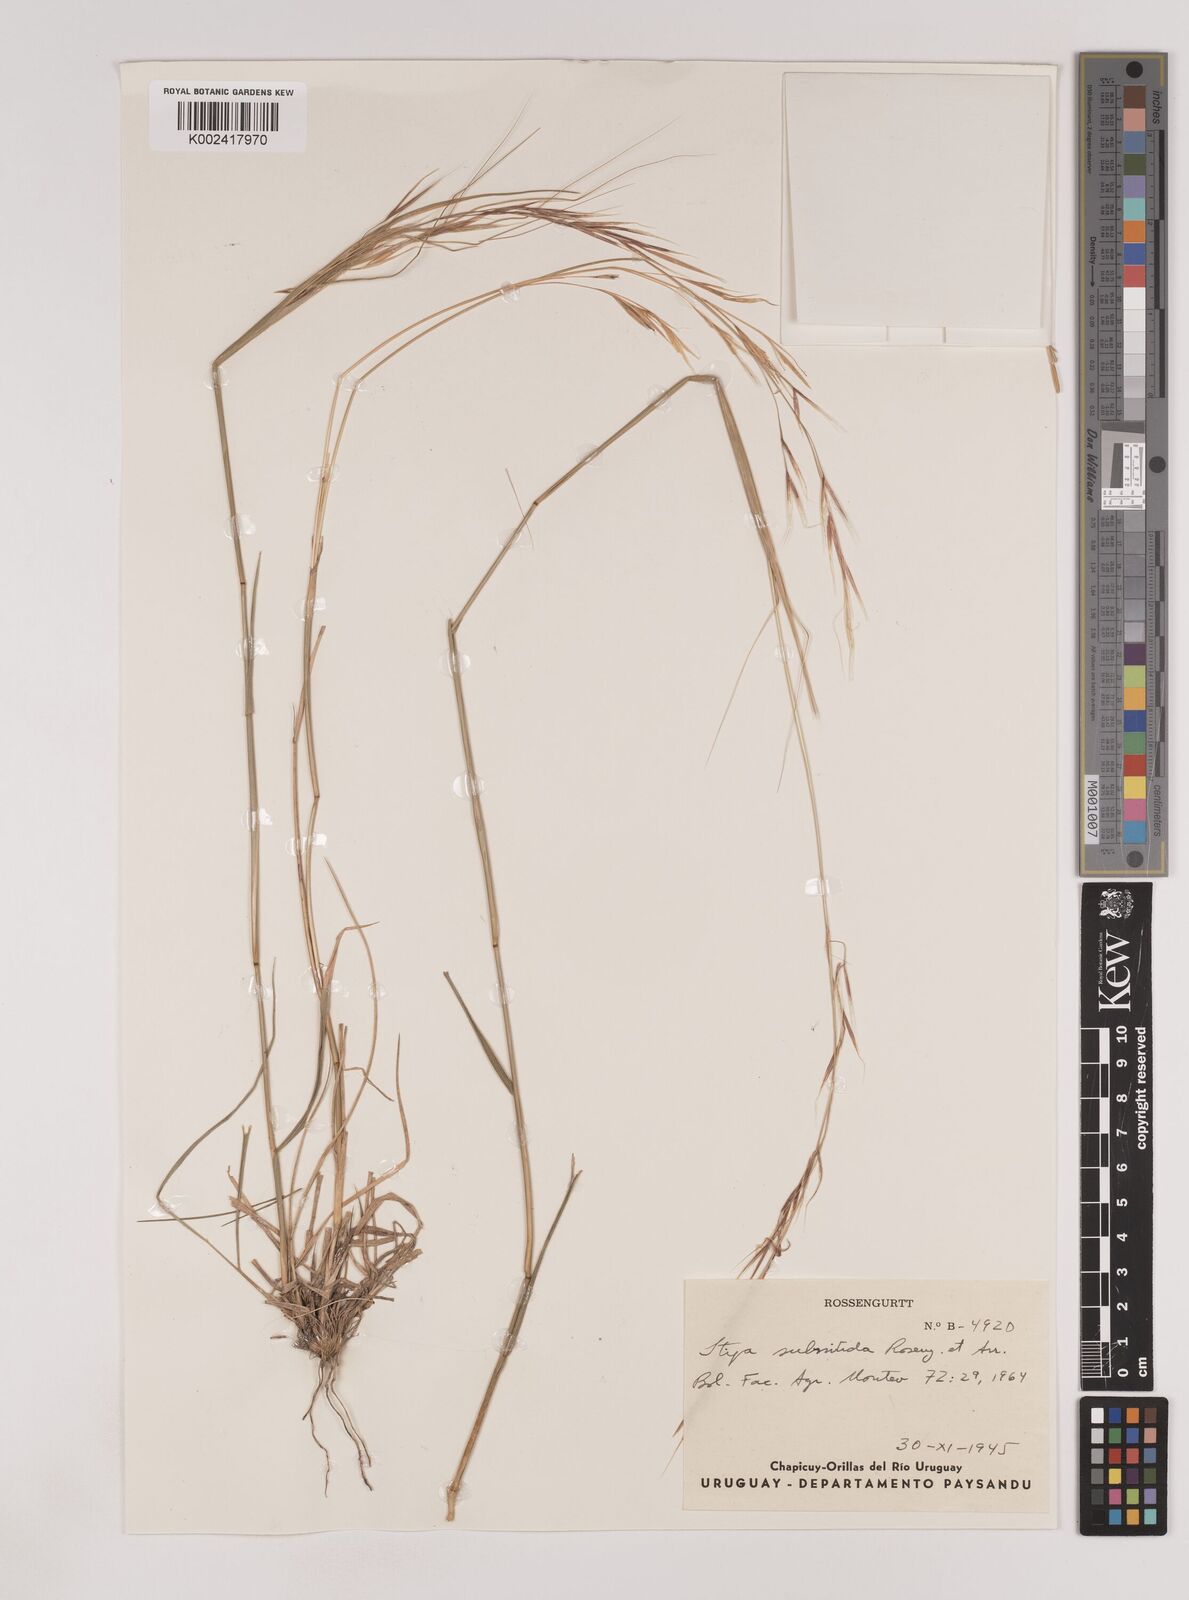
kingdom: Plantae
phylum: Tracheophyta
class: Liliopsida
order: Poales
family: Poaceae
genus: Nassella
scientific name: Nassella subnitida
